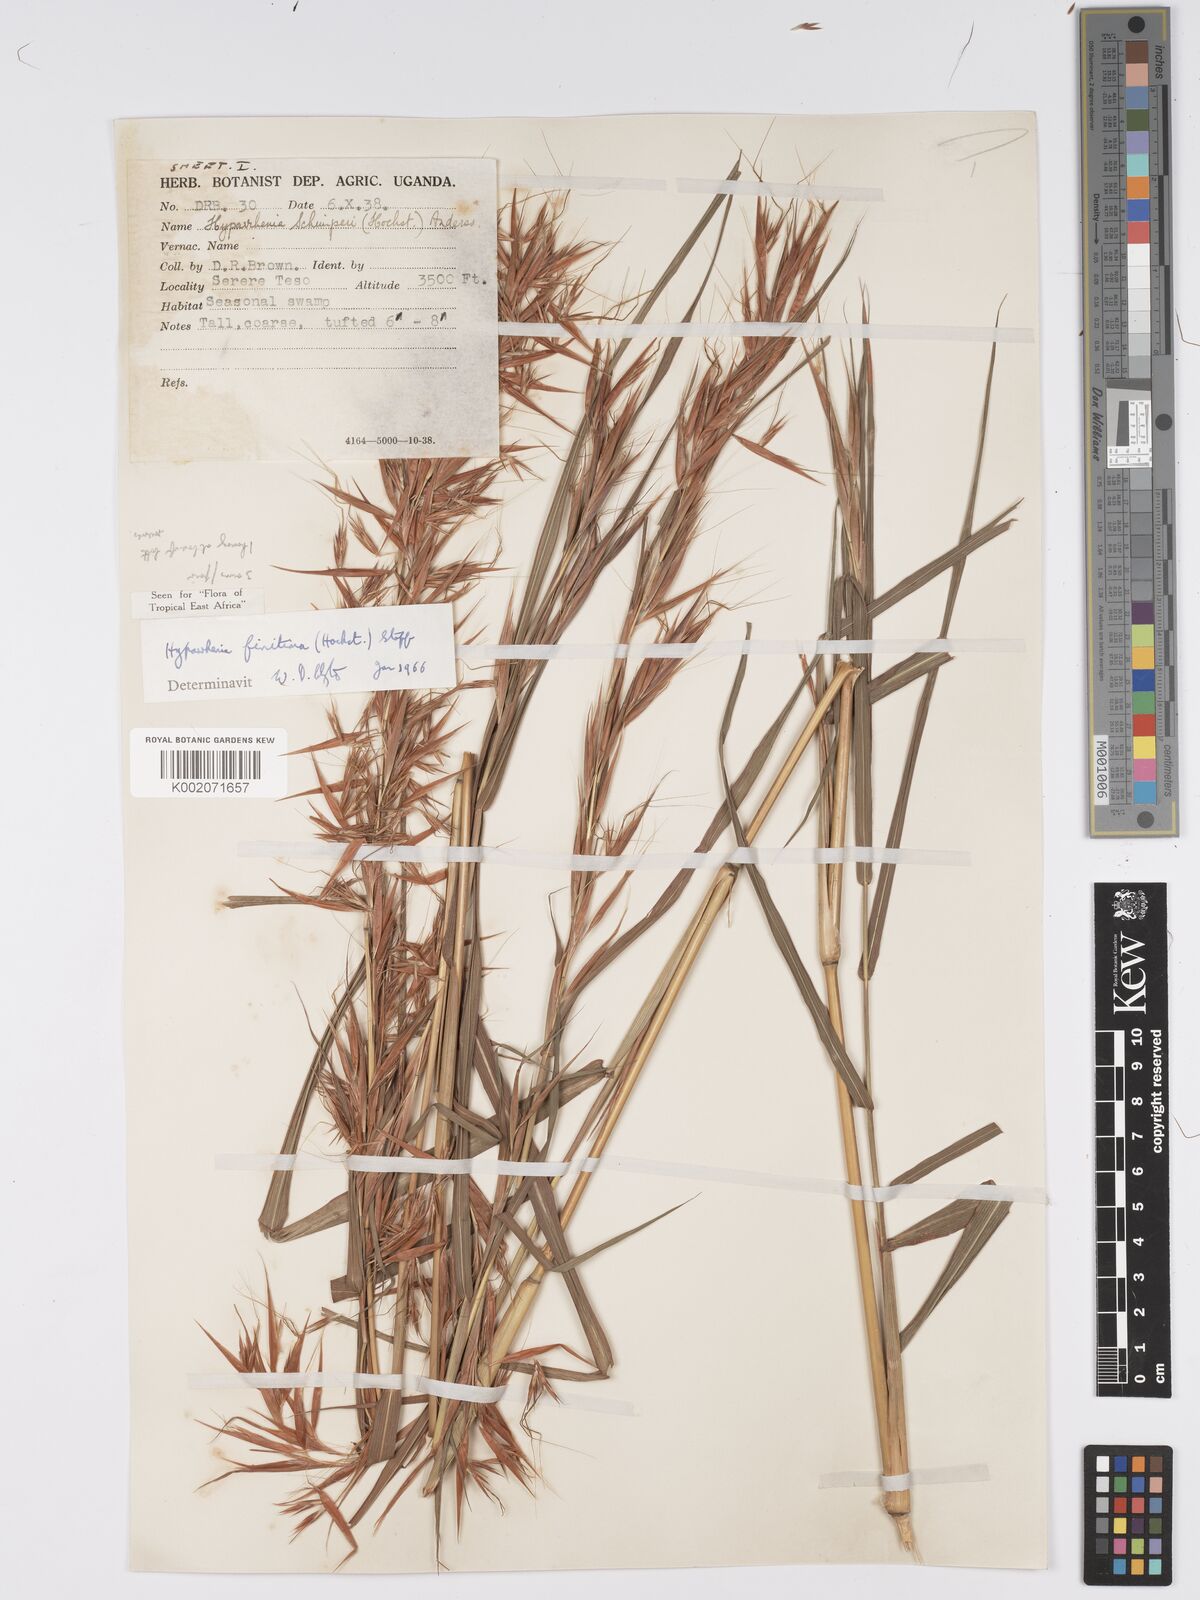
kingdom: Plantae
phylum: Tracheophyta
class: Liliopsida
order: Poales
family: Poaceae
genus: Hyparrhenia
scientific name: Hyparrhenia finitima
